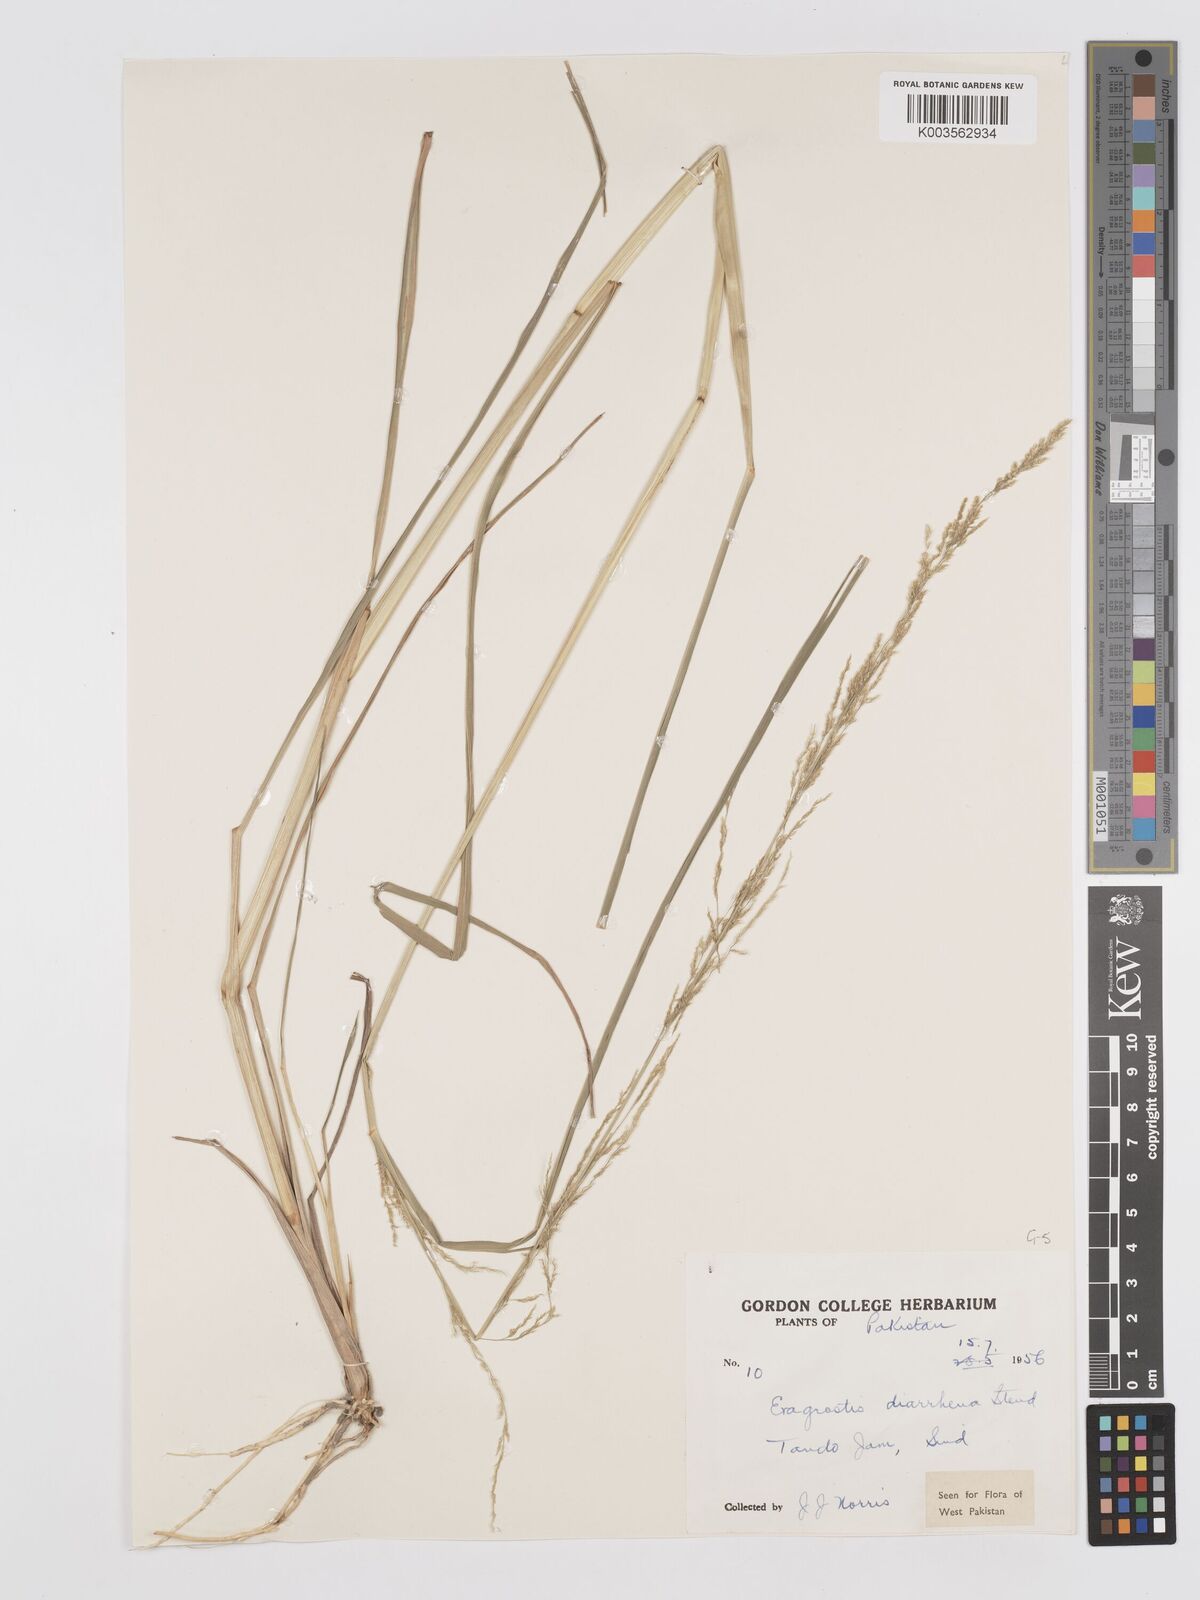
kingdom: Plantae
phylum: Tracheophyta
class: Liliopsida
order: Poales
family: Poaceae
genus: Eragrostis
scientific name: Eragrostis japonica
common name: Pond lovegrass
